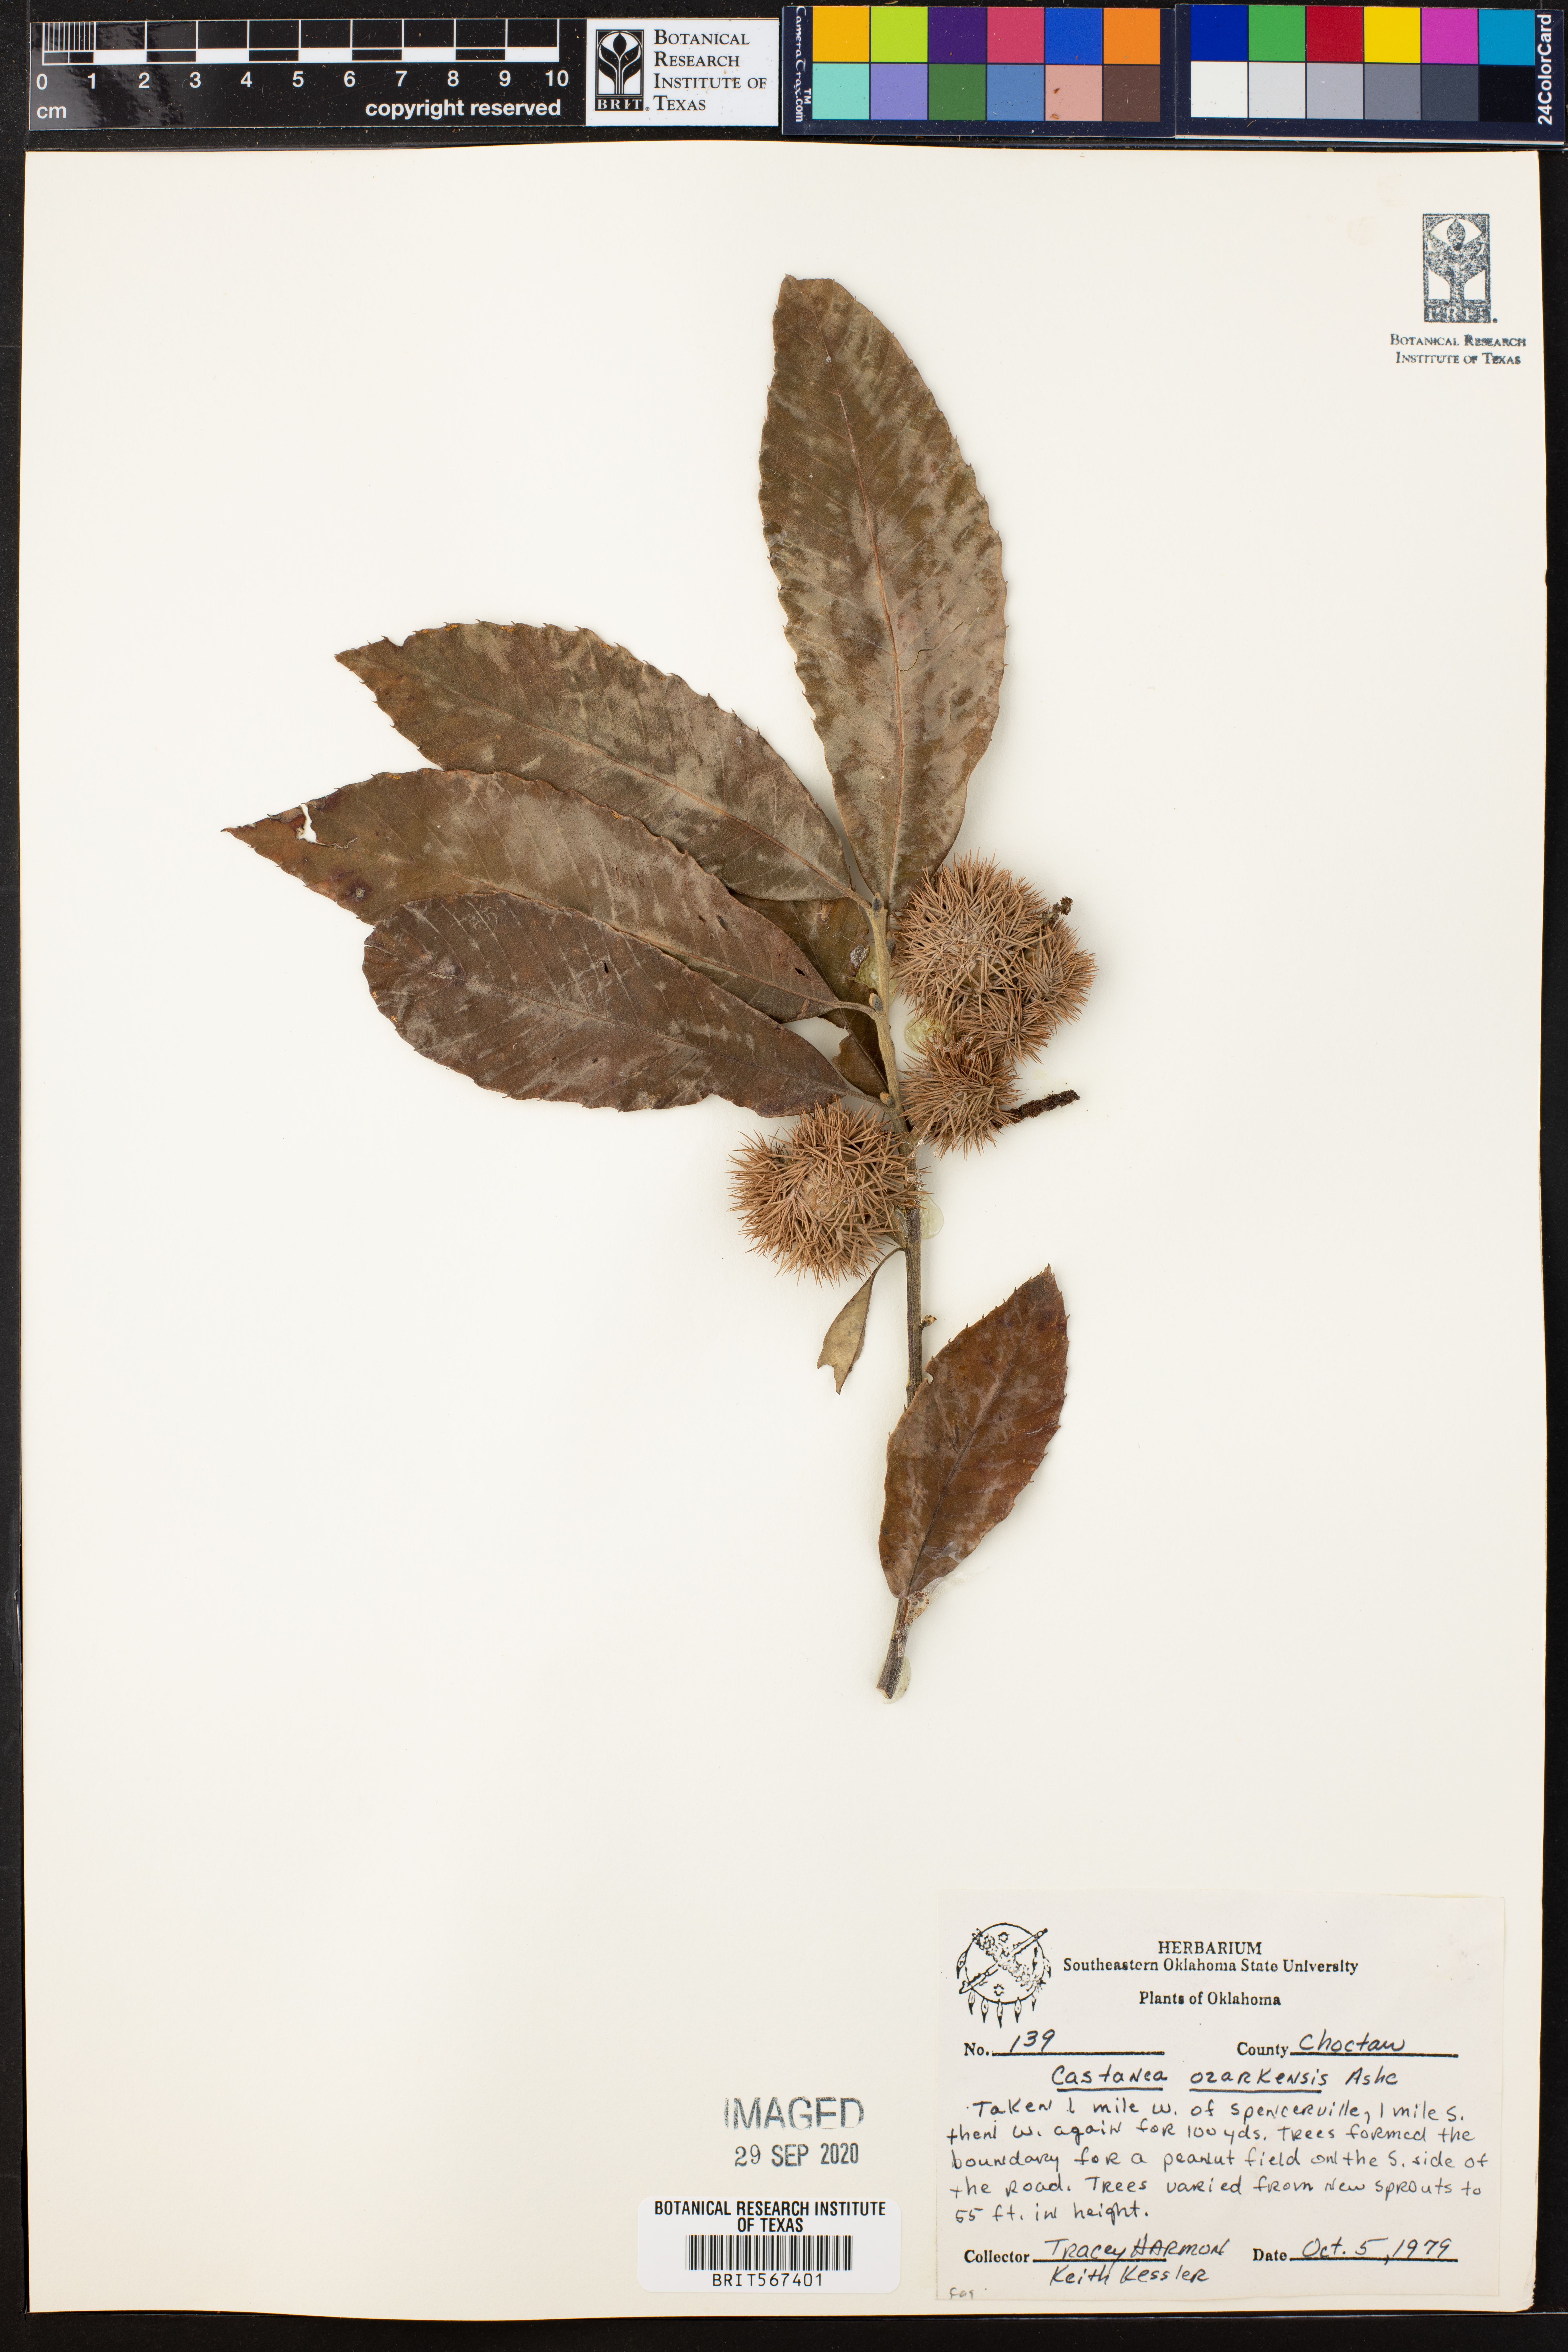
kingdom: Plantae
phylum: Tracheophyta
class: Magnoliopsida
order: Fagales
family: Fagaceae
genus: Castanea
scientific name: Castanea ozarkensis
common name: Ozark chinkapin
